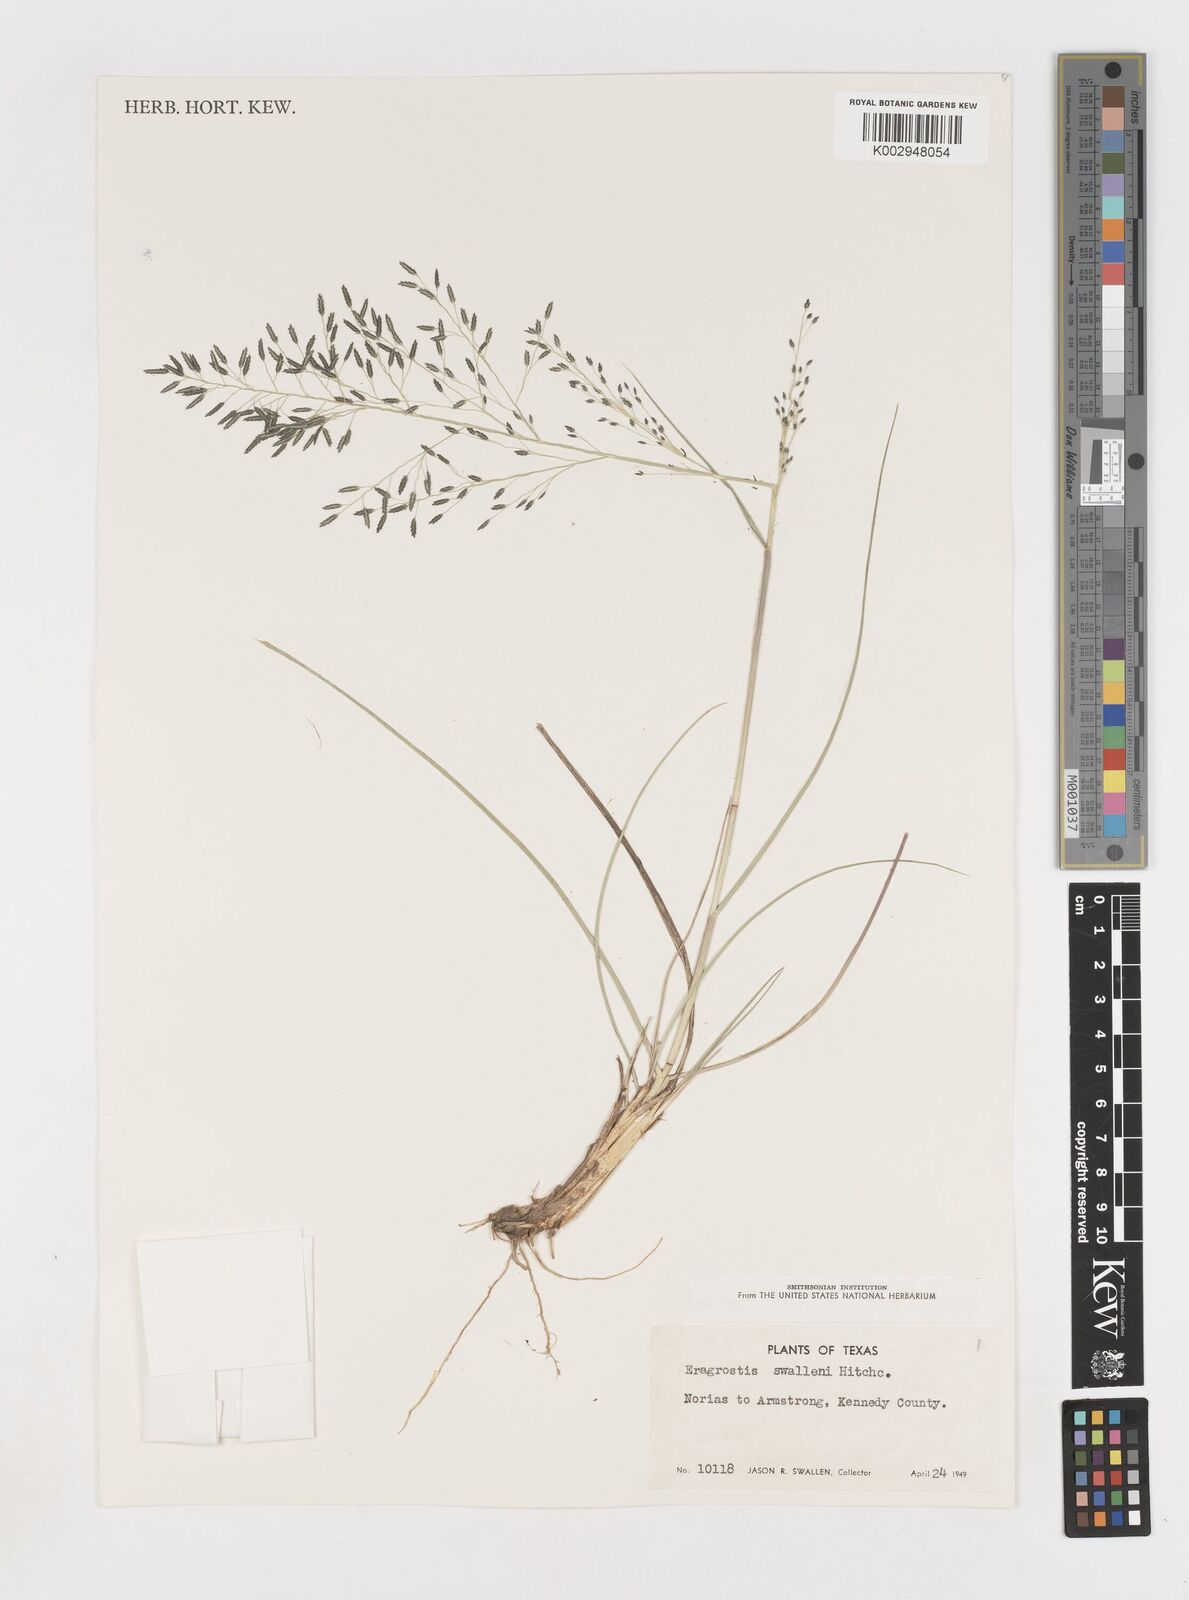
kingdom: Plantae
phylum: Tracheophyta
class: Liliopsida
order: Poales
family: Poaceae
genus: Eragrostis
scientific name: Eragrostis swallenii
